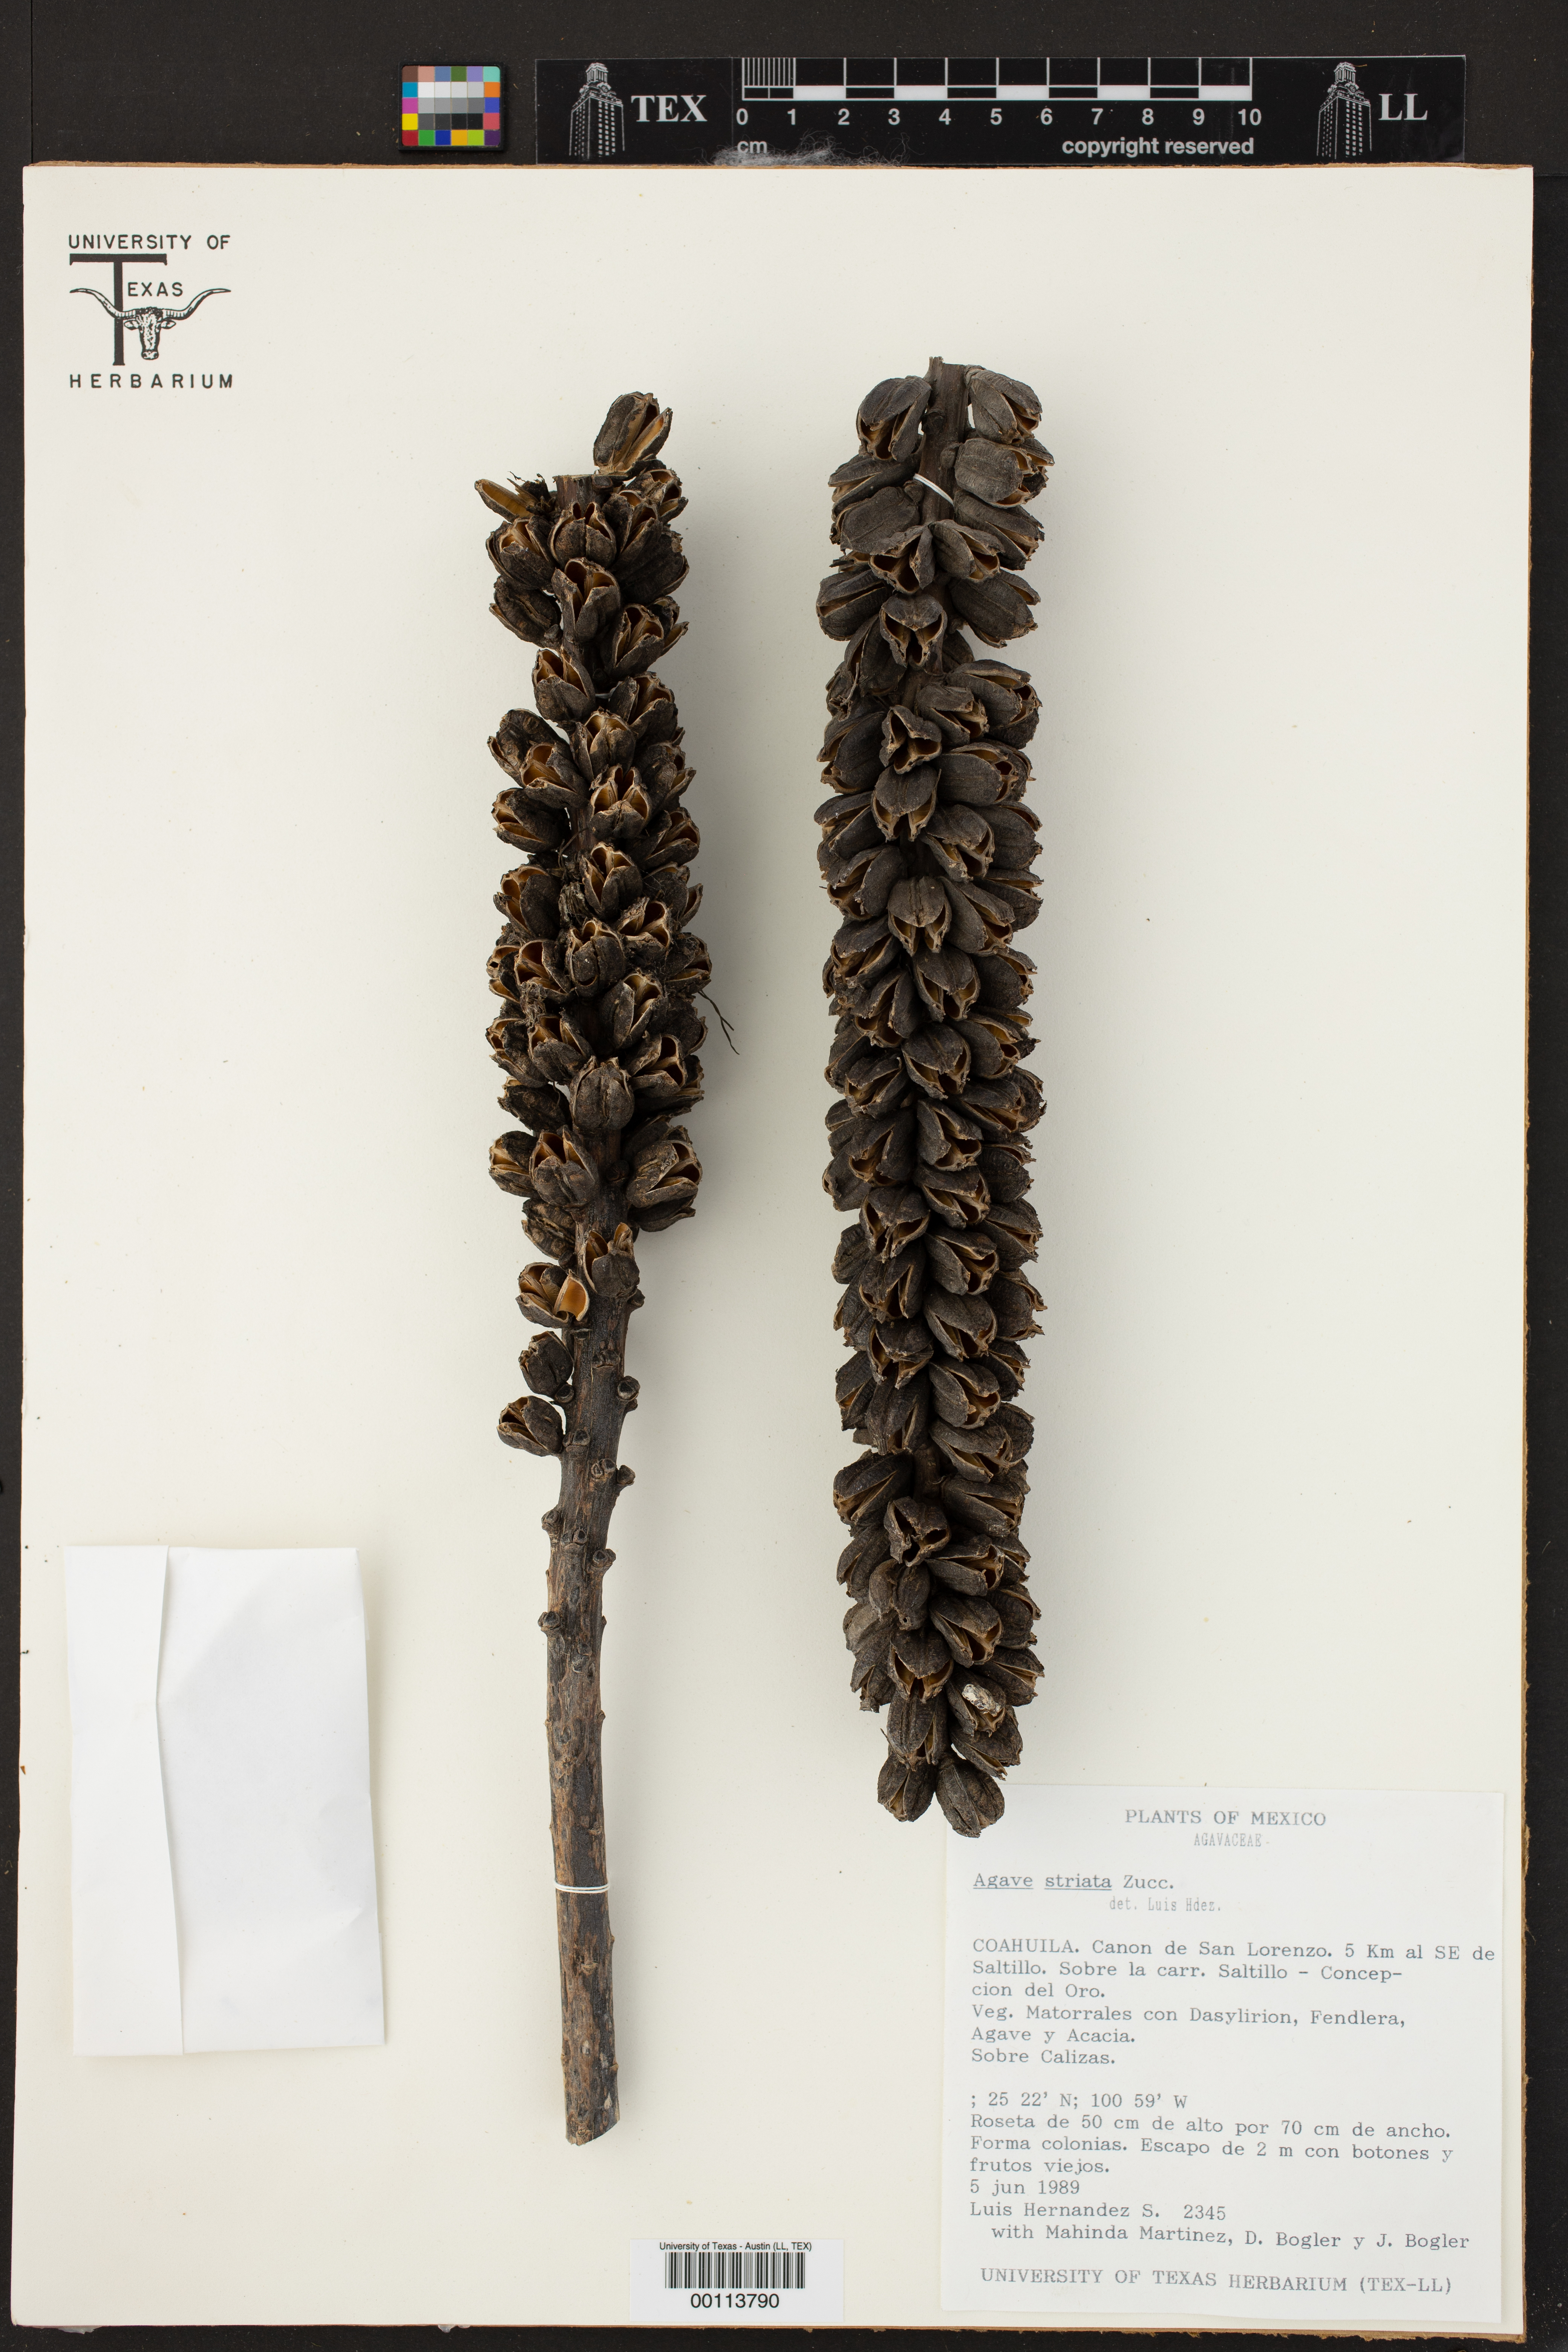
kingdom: Plantae
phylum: Tracheophyta
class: Liliopsida
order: Asparagales
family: Asparagaceae
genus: Agave
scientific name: Agave striata
